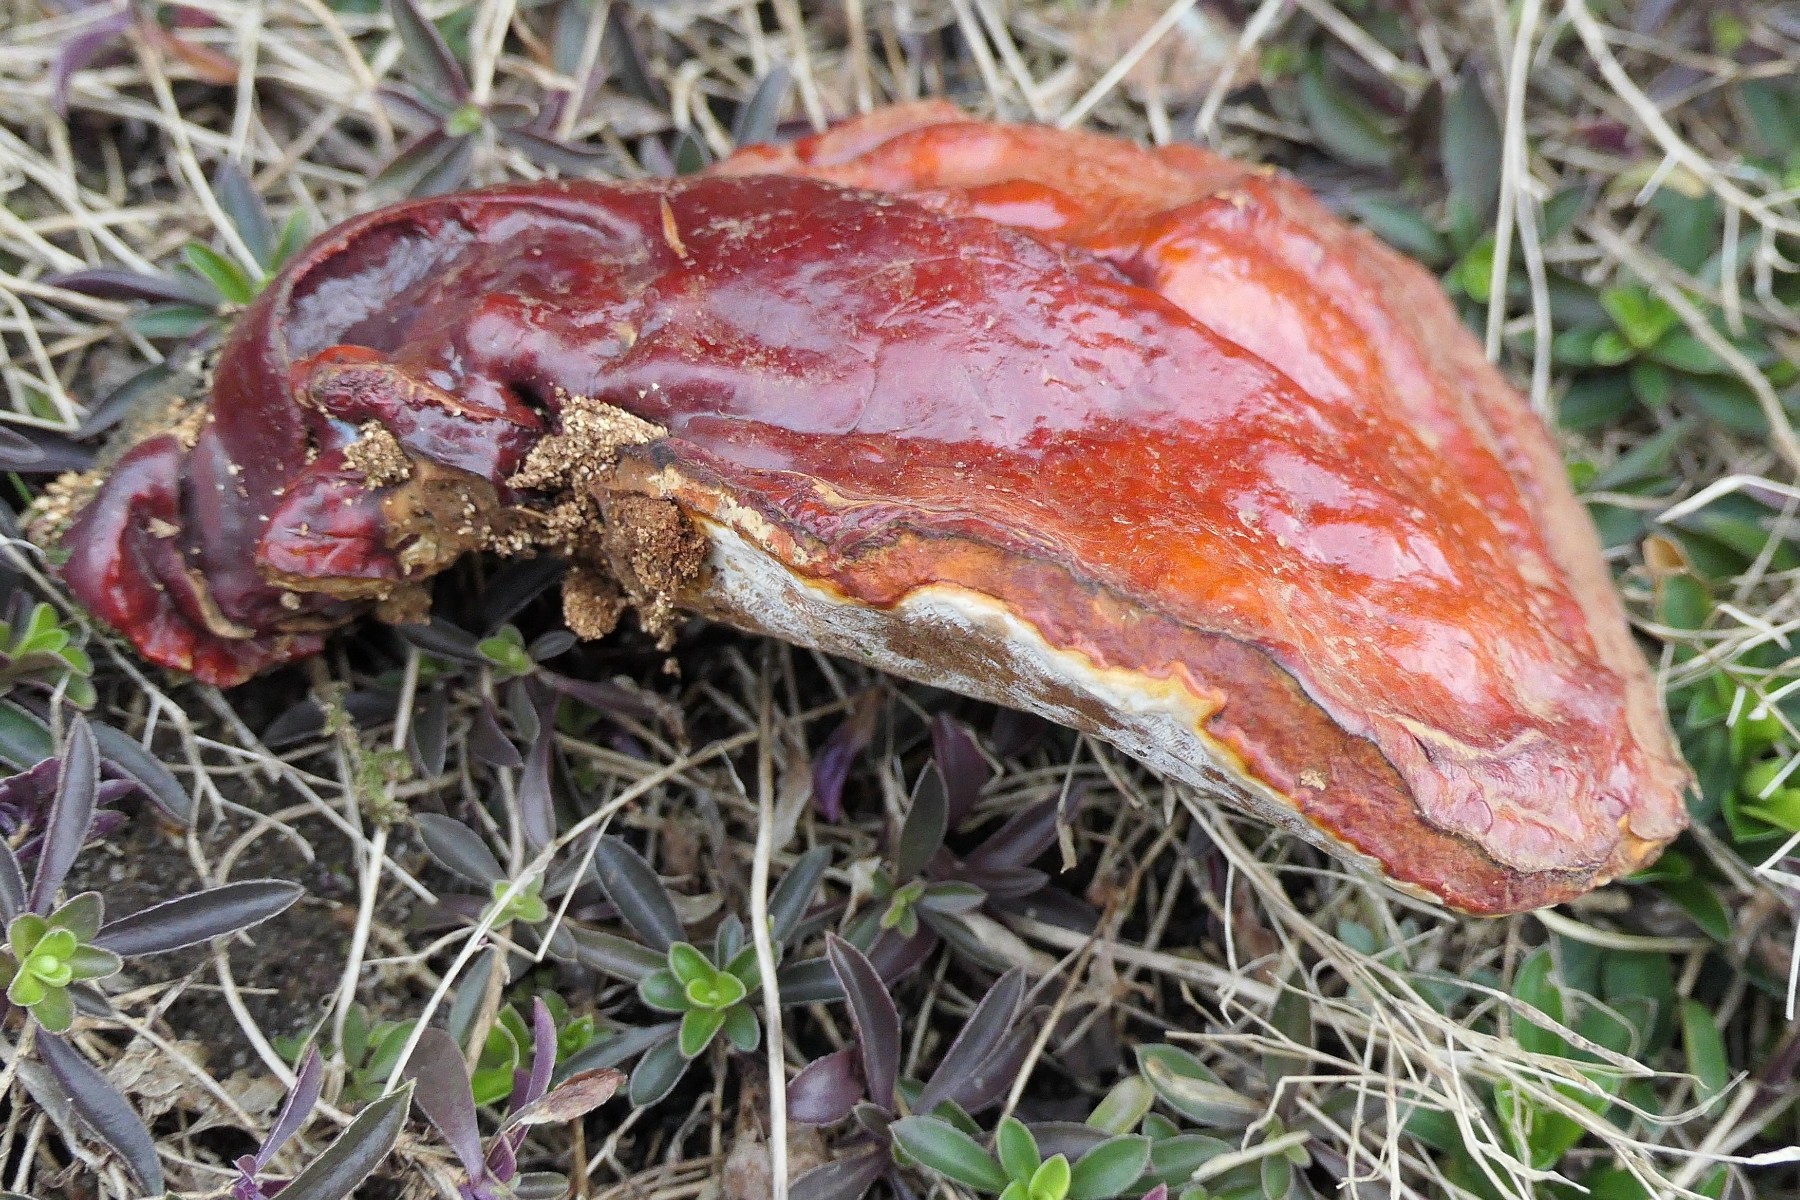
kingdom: Fungi
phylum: Basidiomycota
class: Agaricomycetes
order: Polyporales
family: Polyporaceae
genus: Ganoderma
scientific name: Ganoderma lucidum
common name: skinnende lakporesvamp
